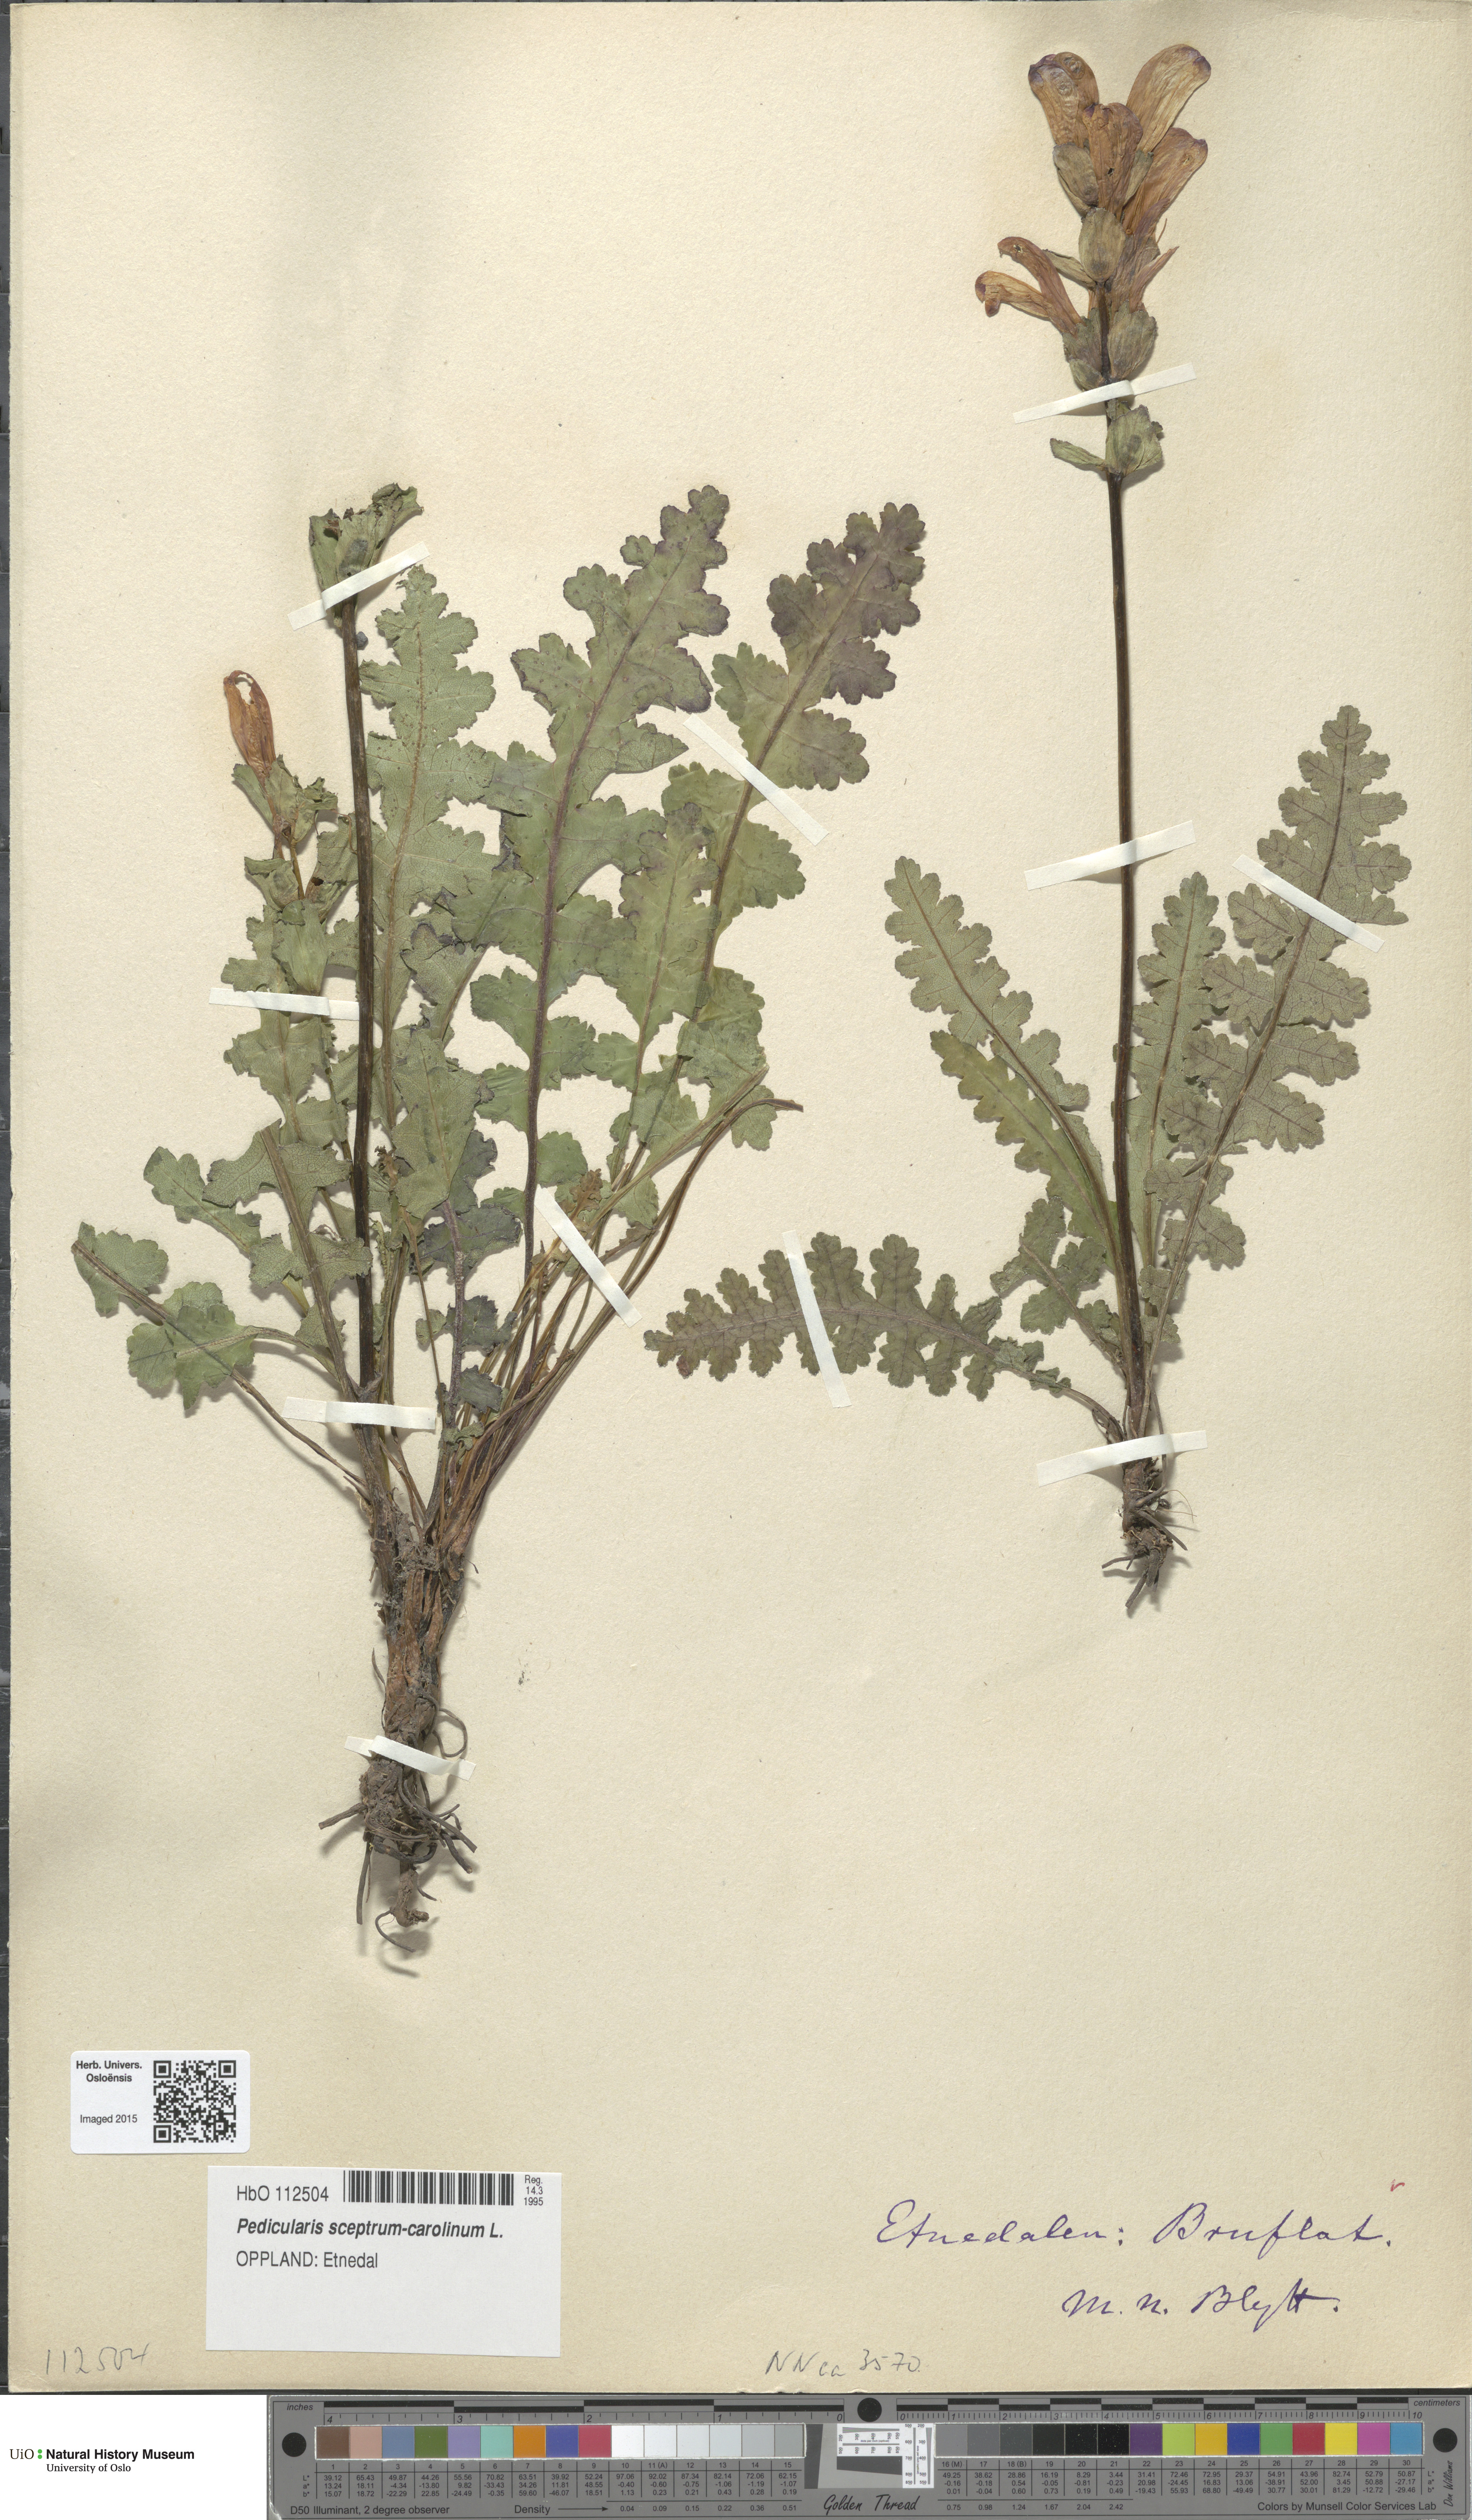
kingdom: Plantae
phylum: Tracheophyta
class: Magnoliopsida
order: Lamiales
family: Orobanchaceae
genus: Pedicularis
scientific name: Pedicularis sceptrum-carolinum
